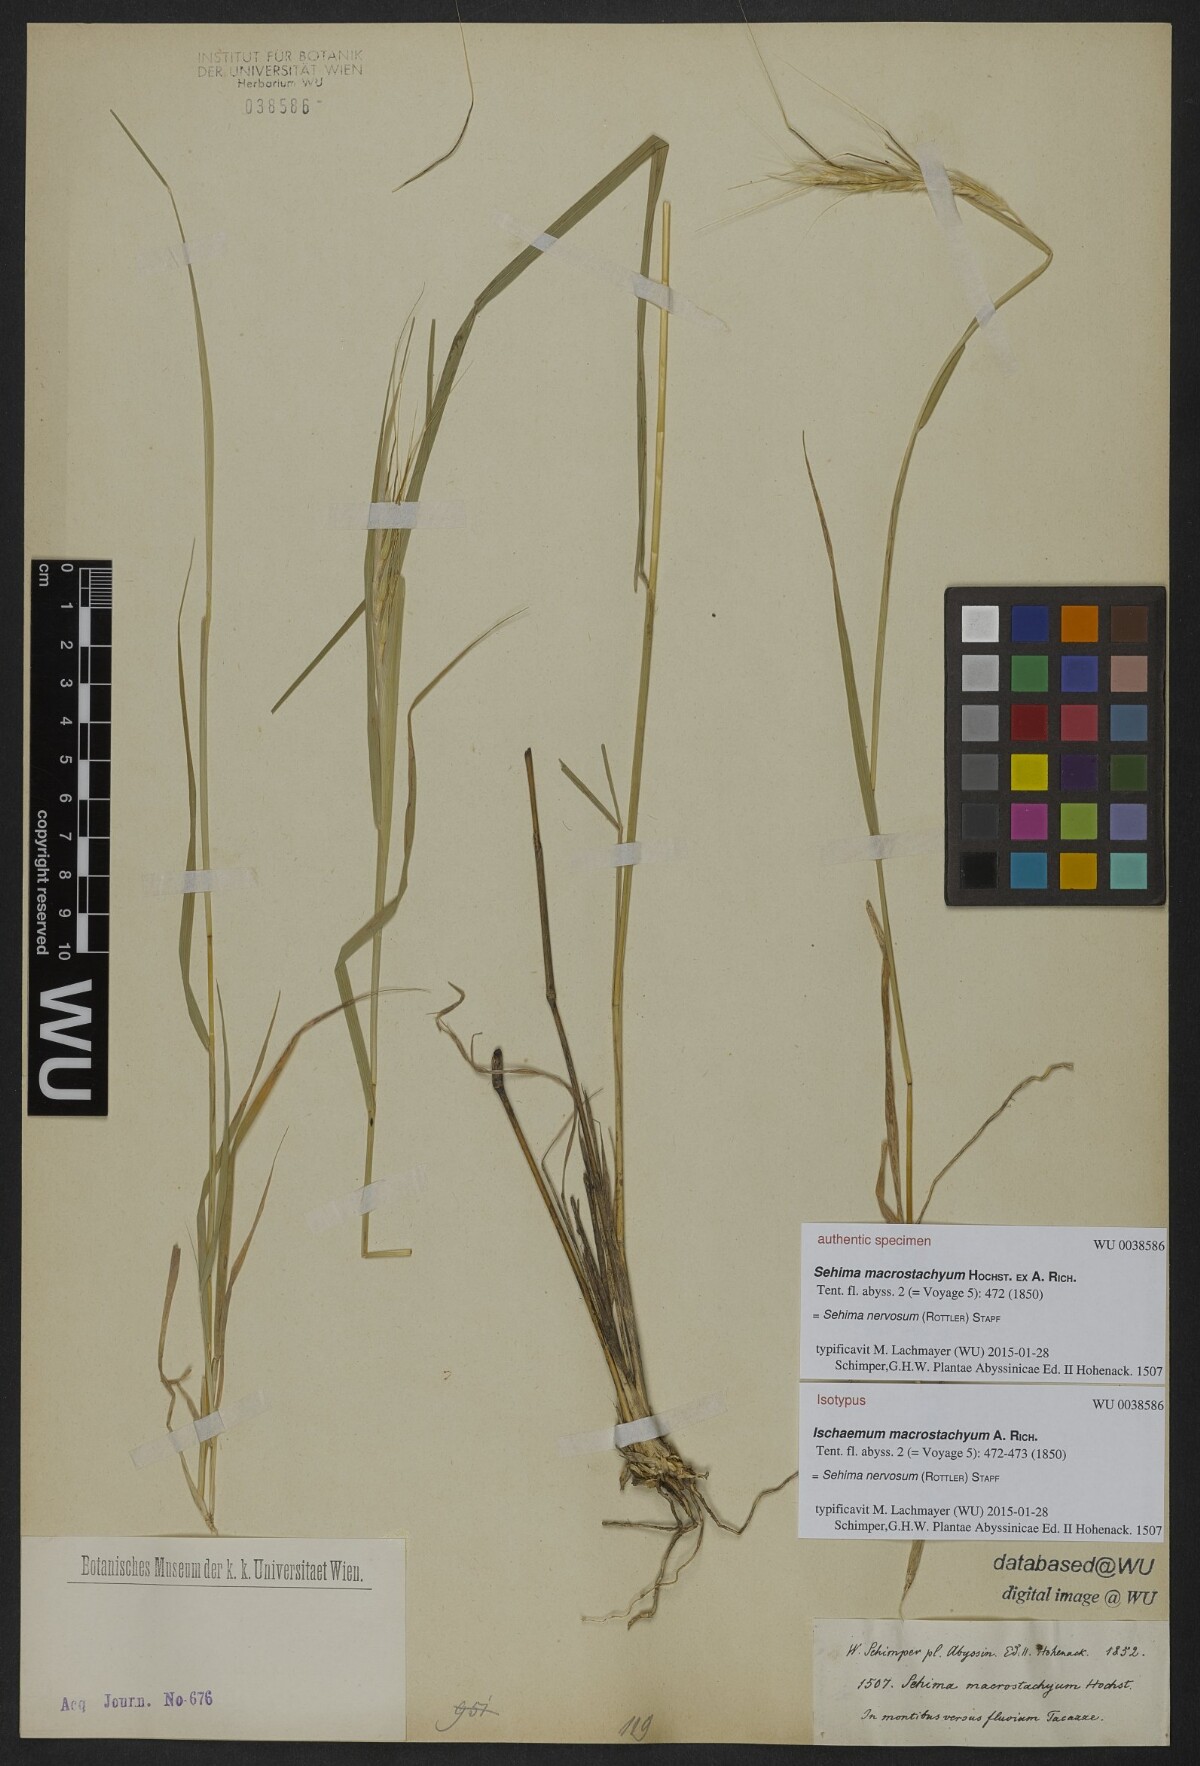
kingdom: Plantae
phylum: Tracheophyta
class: Liliopsida
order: Poales
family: Poaceae
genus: Sehima
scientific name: Sehima nervosa
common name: Rat-tail grass
